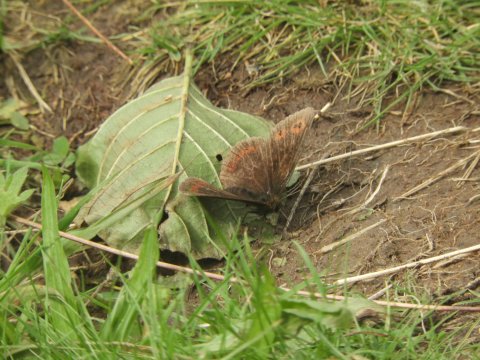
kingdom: Animalia
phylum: Arthropoda
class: Insecta
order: Lepidoptera
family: Nymphalidae
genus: Erebia
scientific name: Erebia aethiops
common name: Scotch Argus
